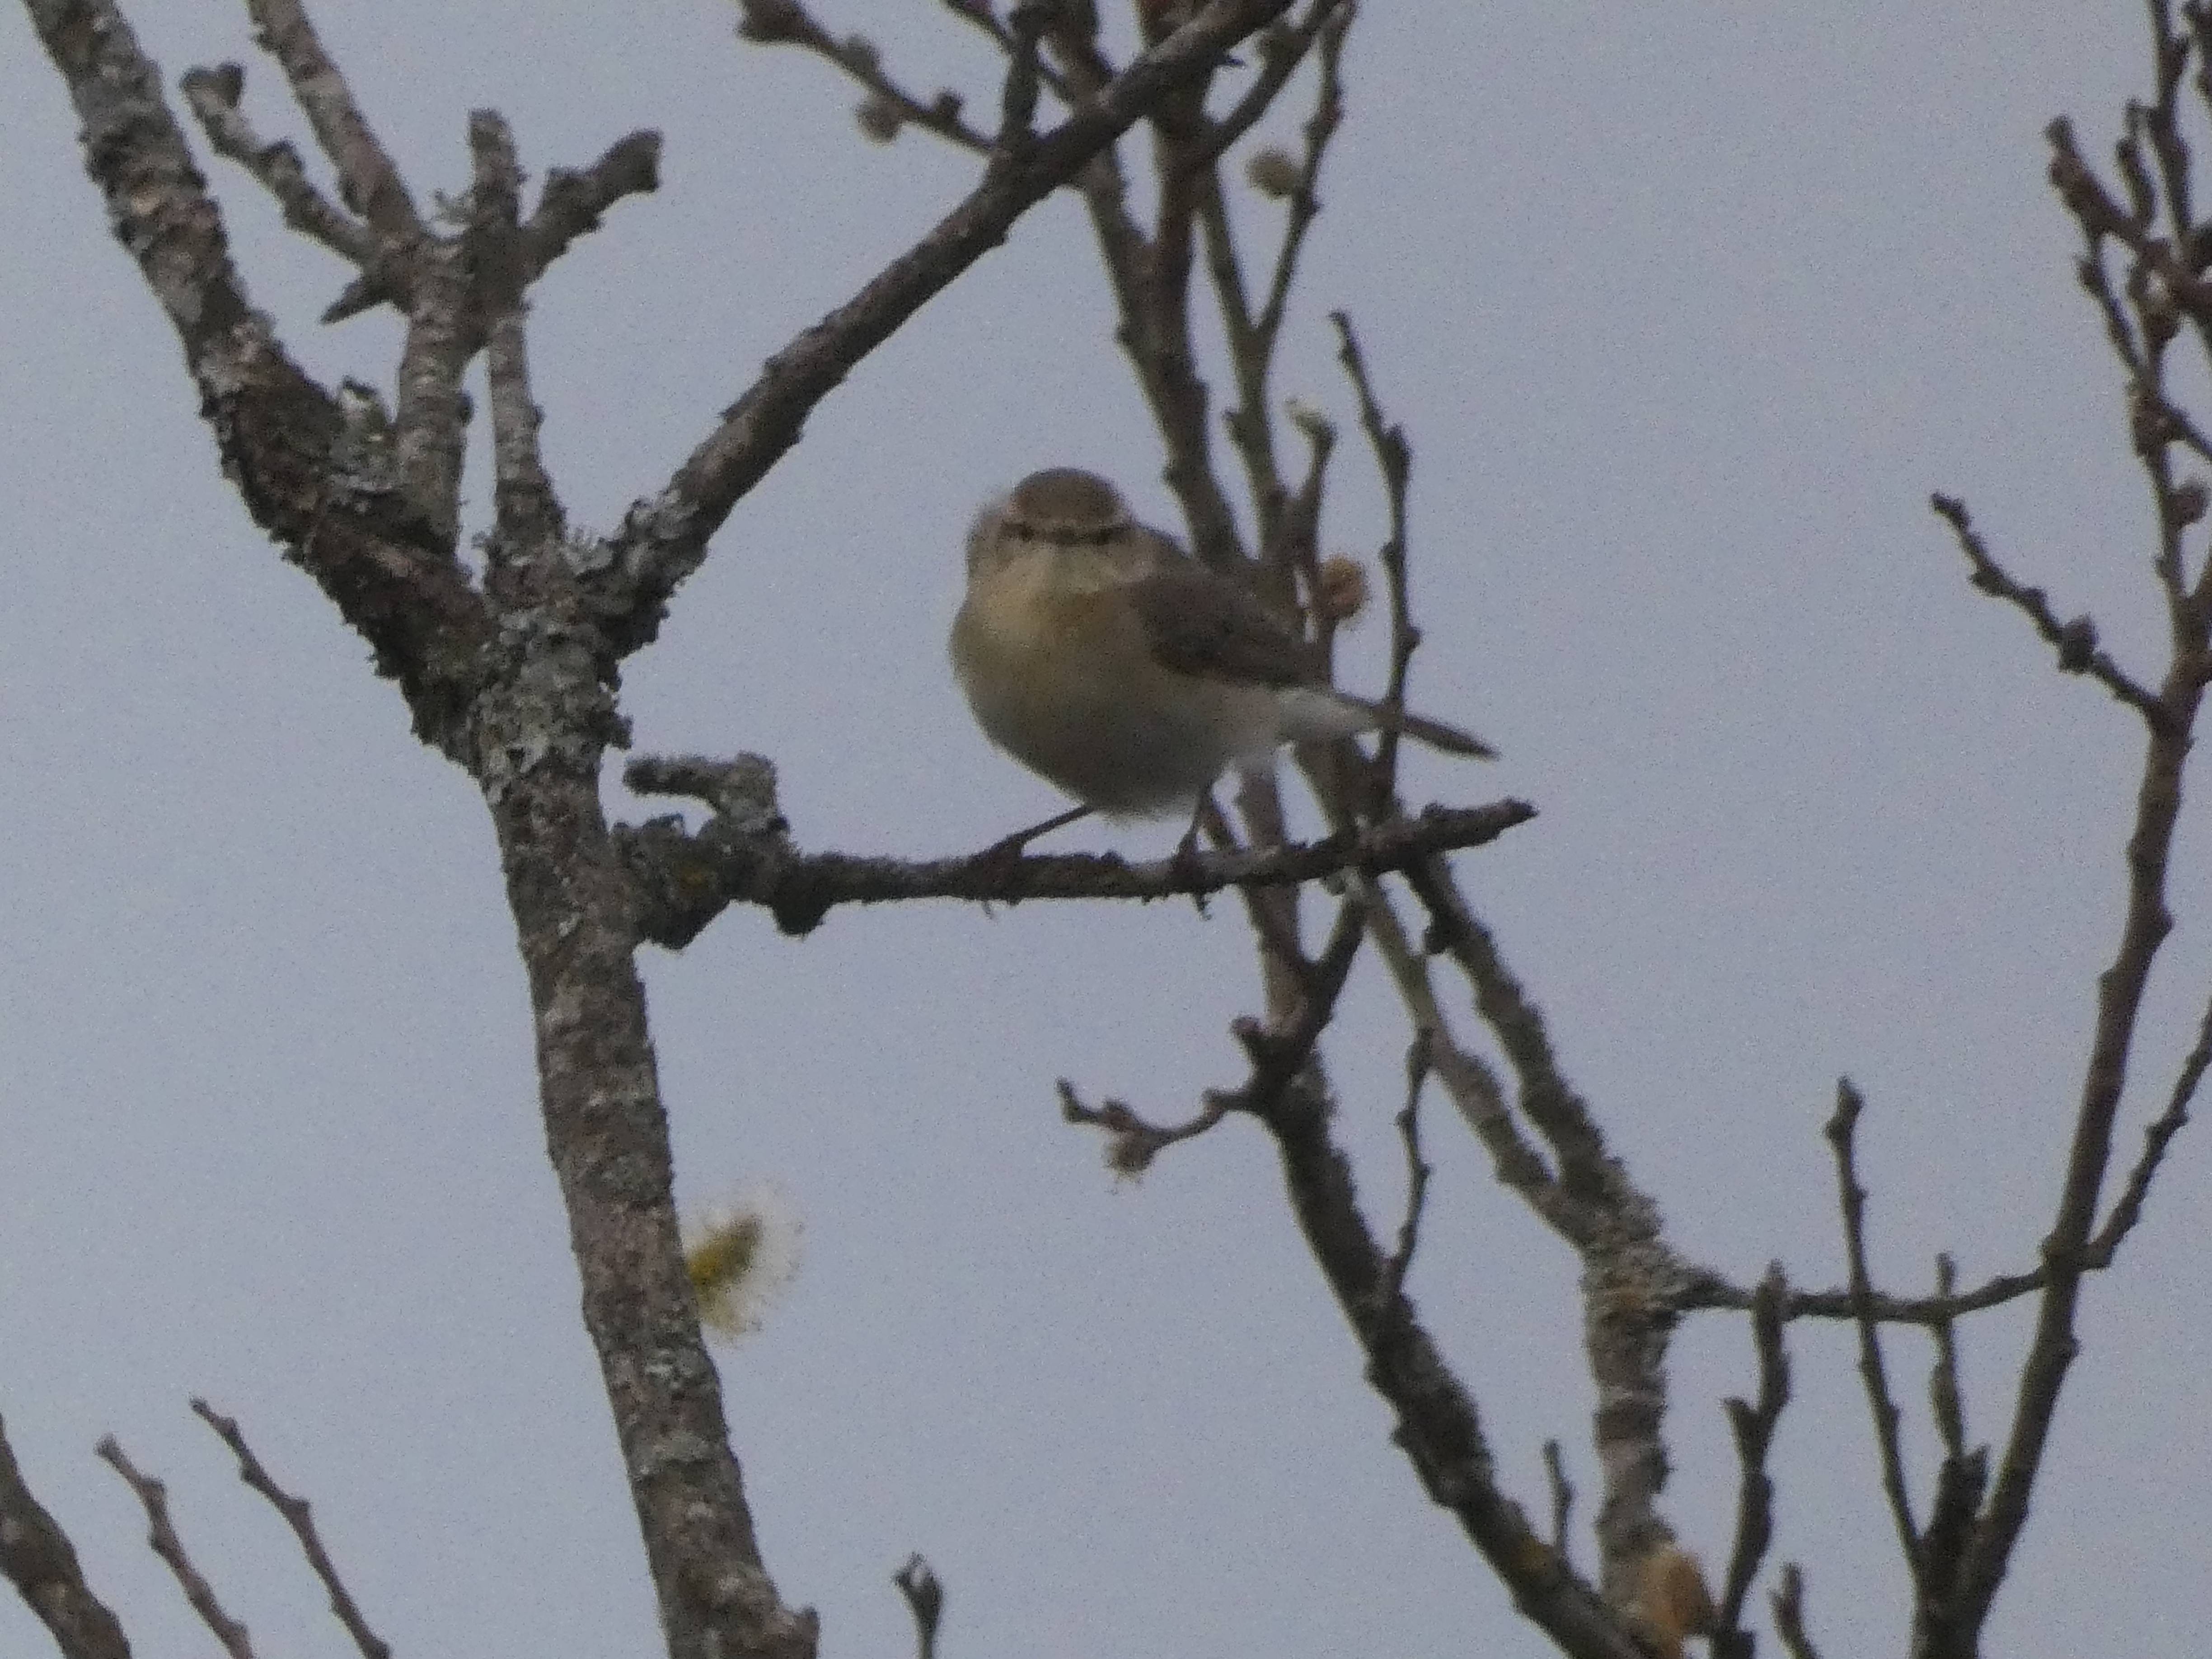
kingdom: Animalia
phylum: Chordata
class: Aves
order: Passeriformes
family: Phylloscopidae
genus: Phylloscopus
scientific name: Phylloscopus collybita
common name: Gransanger
